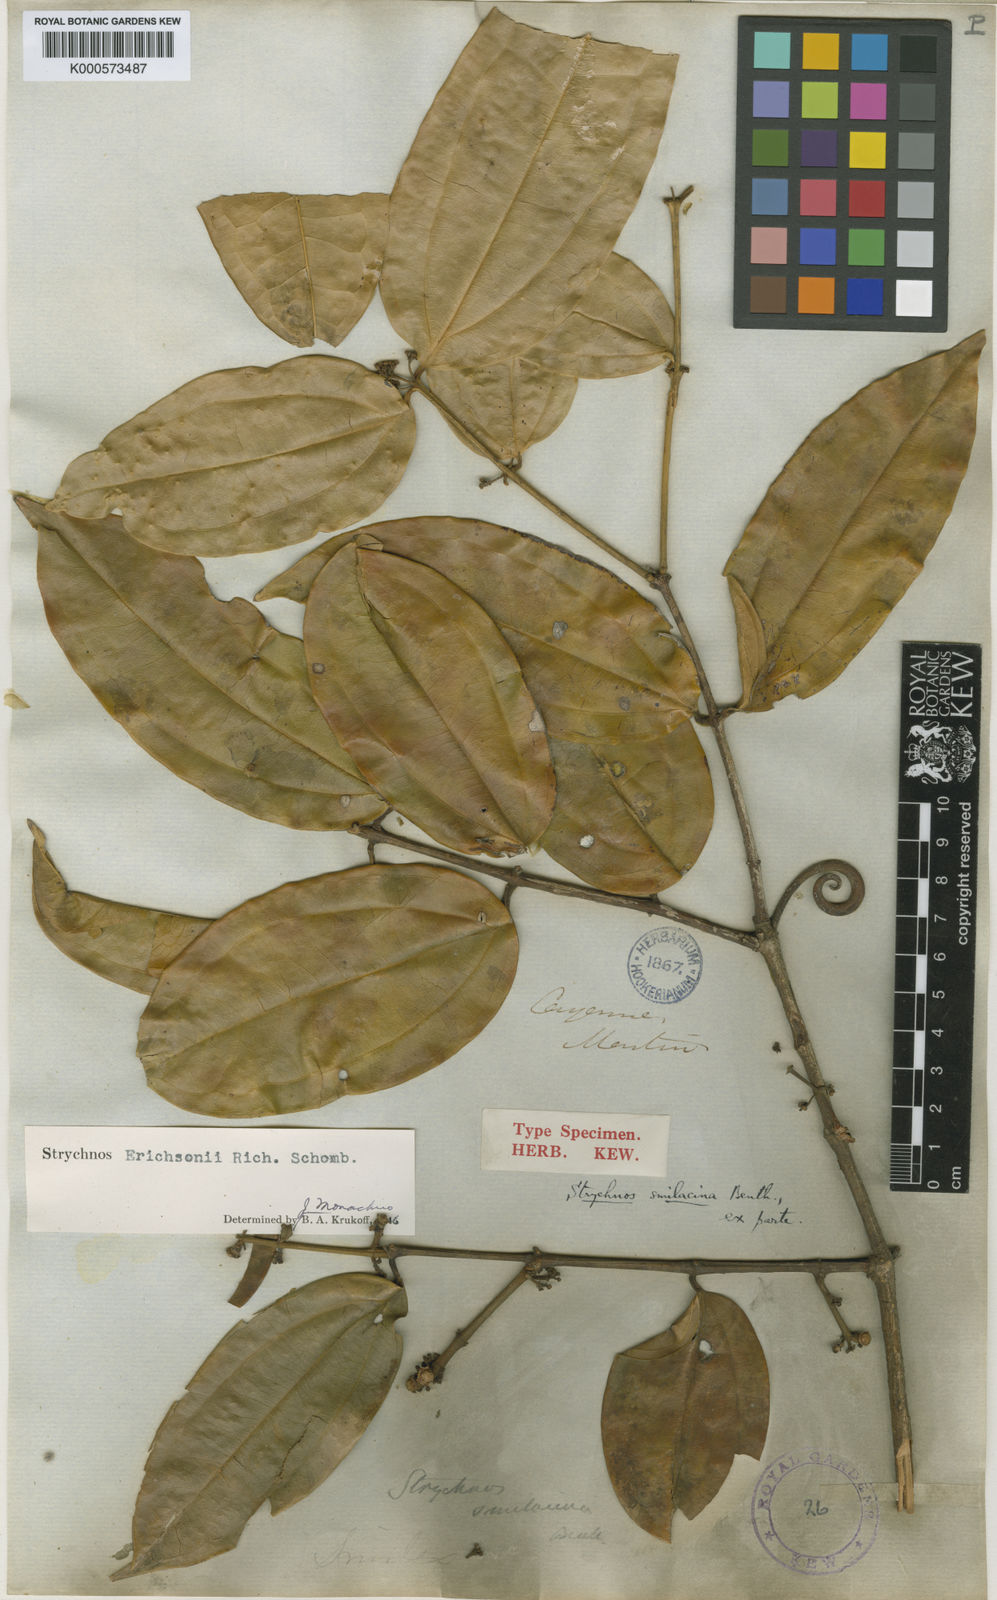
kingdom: Plantae
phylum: Tracheophyta
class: Magnoliopsida
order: Gentianales
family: Loganiaceae
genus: Strychnos
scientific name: Strychnos erichsonii
